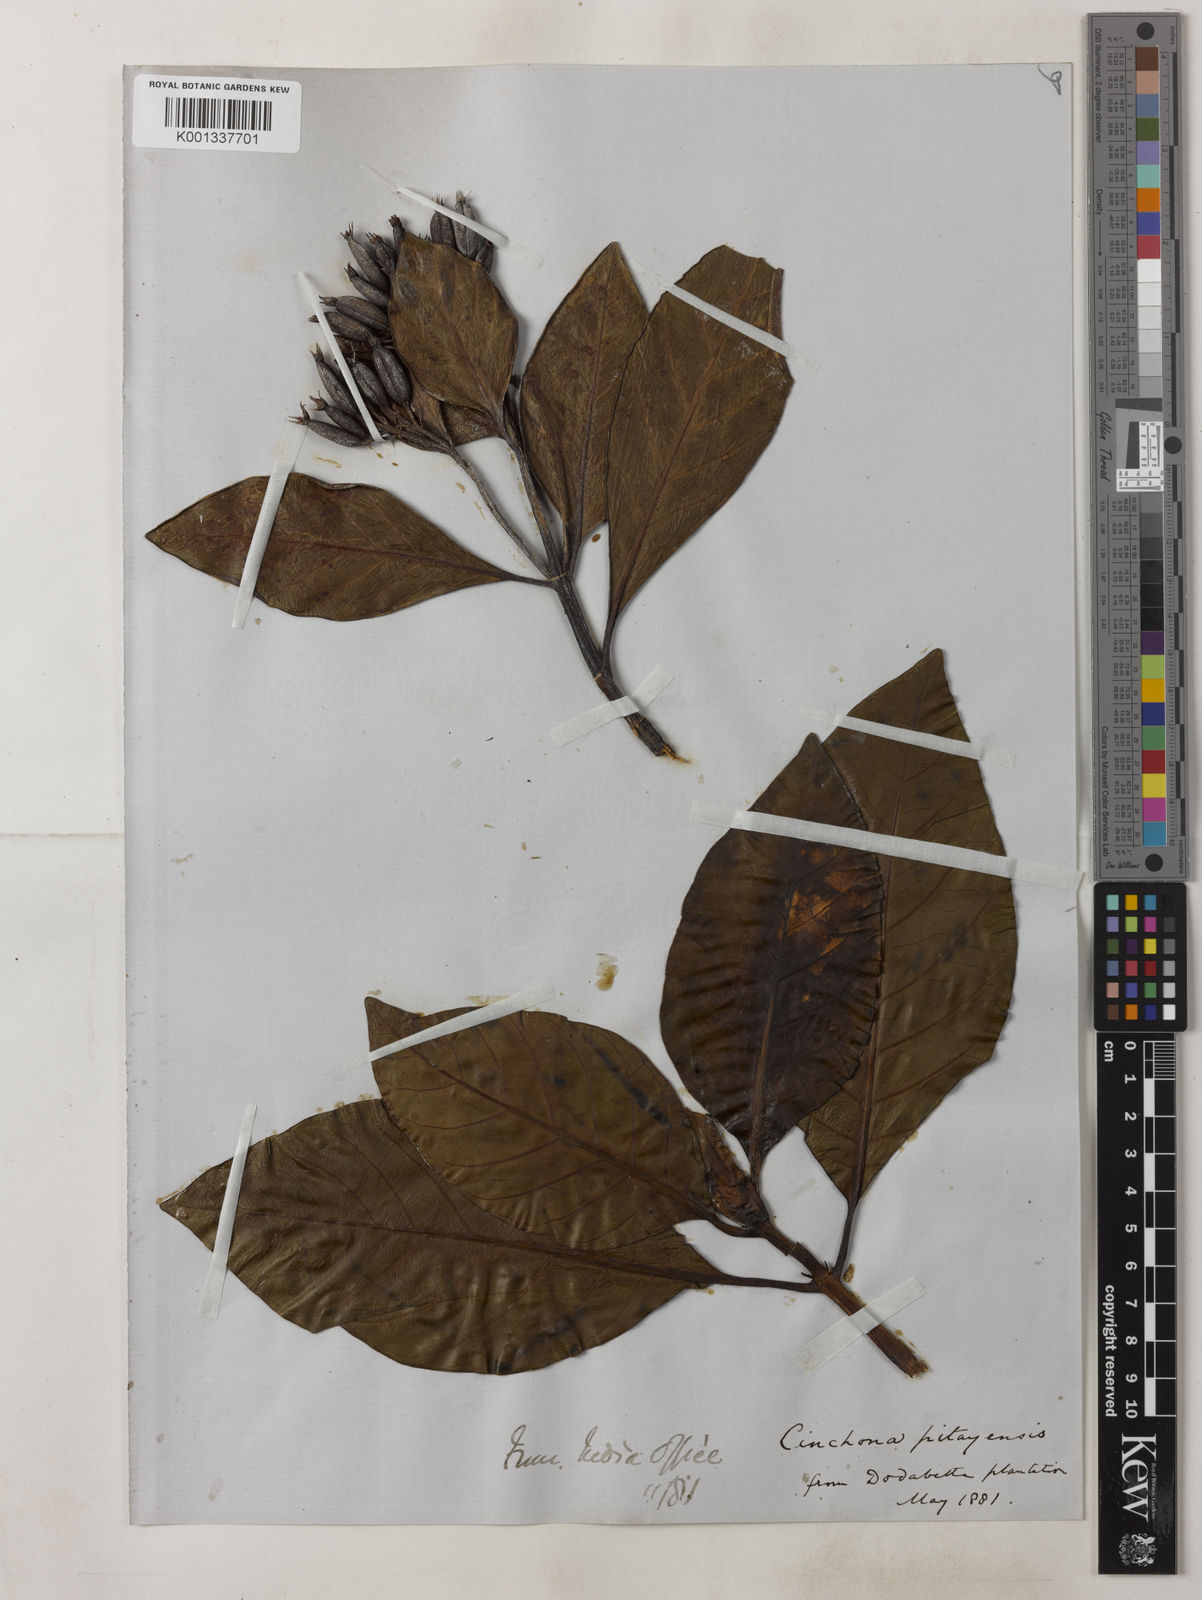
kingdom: Plantae
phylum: Tracheophyta
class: Magnoliopsida
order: Gentianales
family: Rubiaceae
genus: Cinchona
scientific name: Cinchona pitayensis
